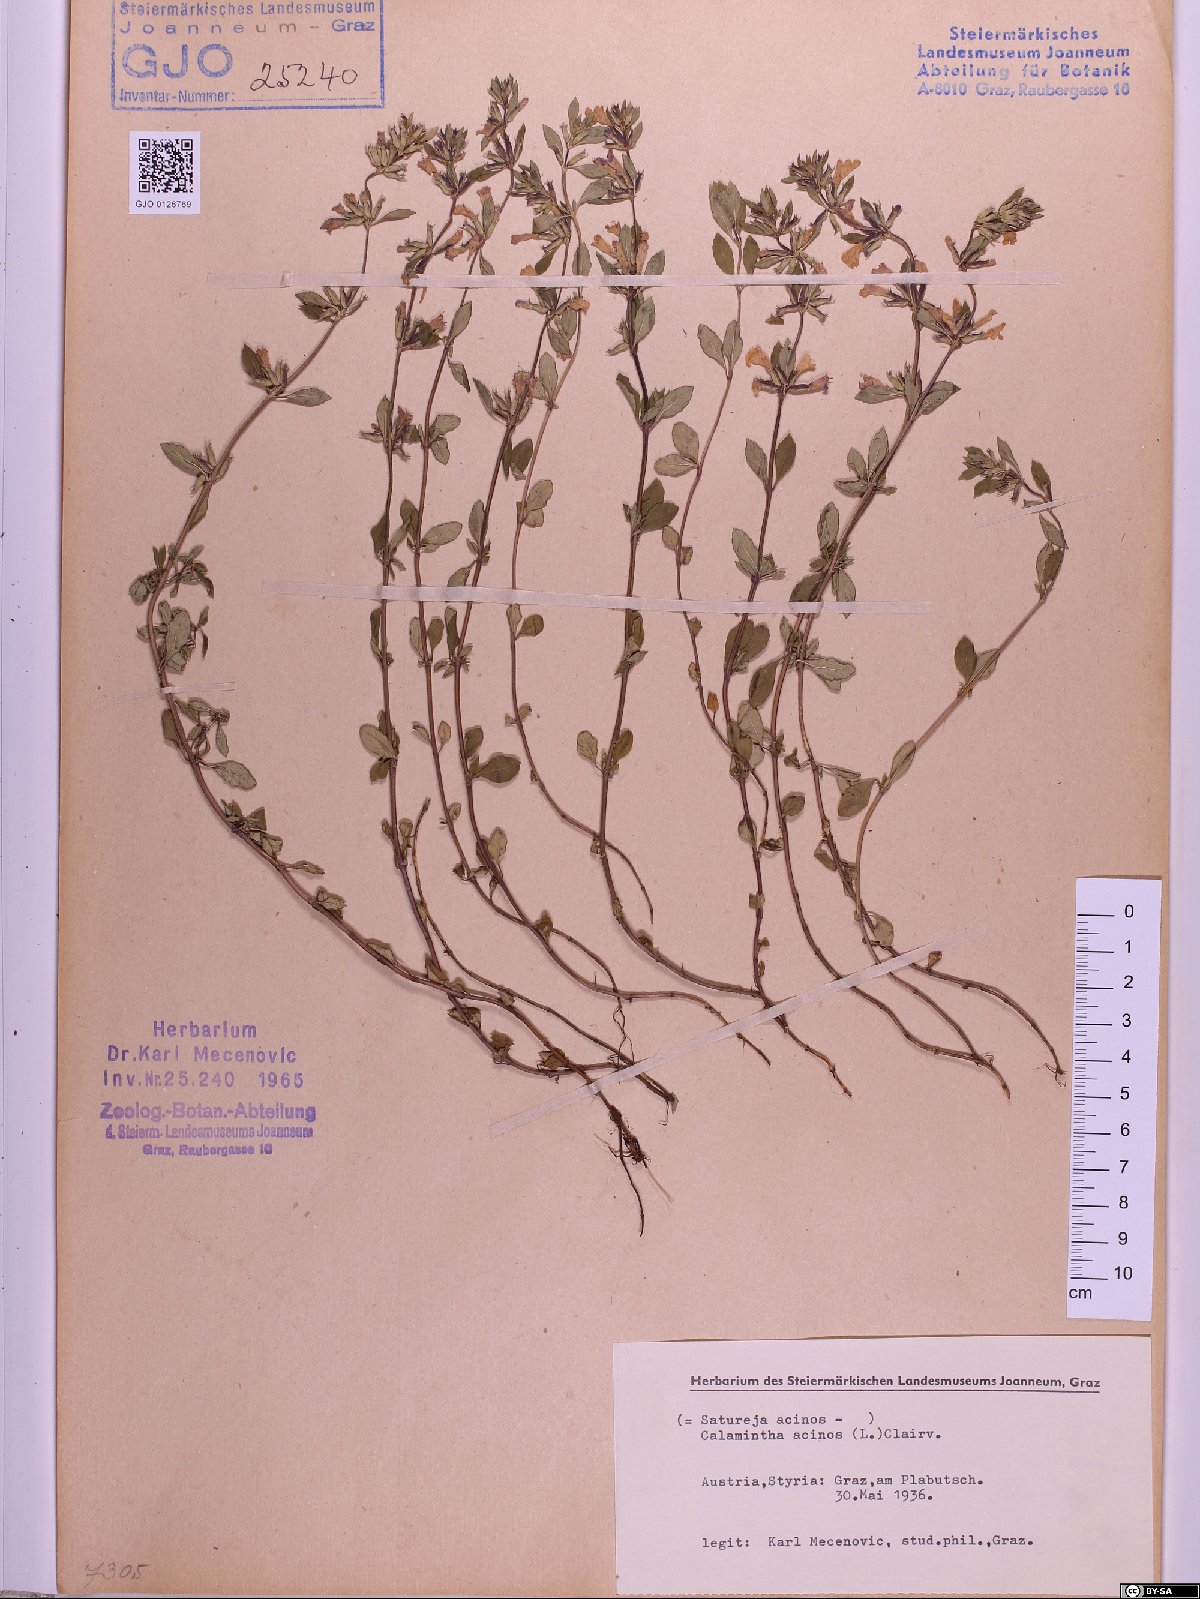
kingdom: Plantae
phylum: Tracheophyta
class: Magnoliopsida
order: Lamiales
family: Lamiaceae
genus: Clinopodium
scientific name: Clinopodium acinos
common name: Basil thyme
